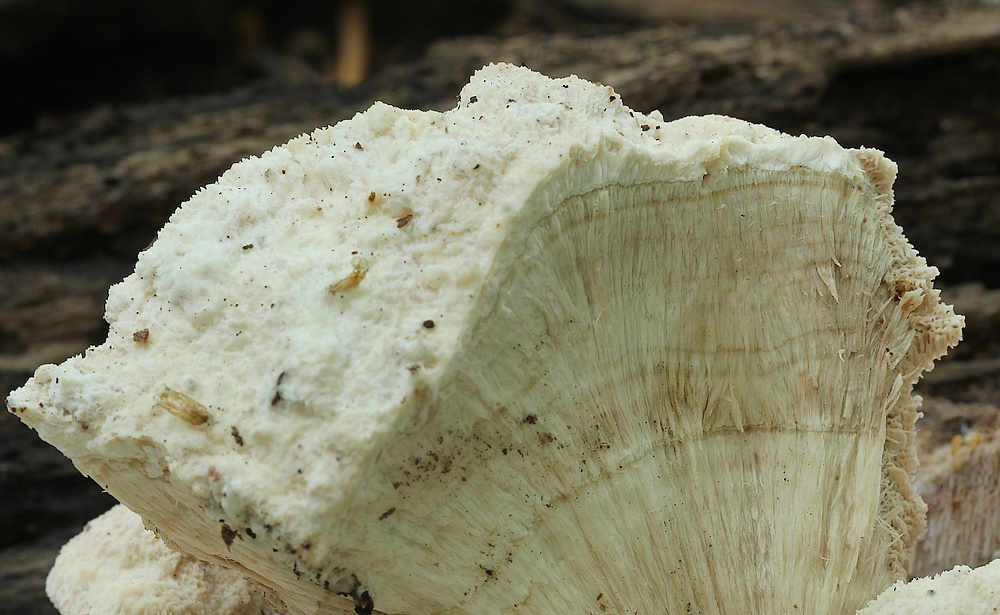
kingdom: Fungi
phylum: Basidiomycota
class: Agaricomycetes
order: Polyporales
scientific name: Polyporales
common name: poresvampordenen
